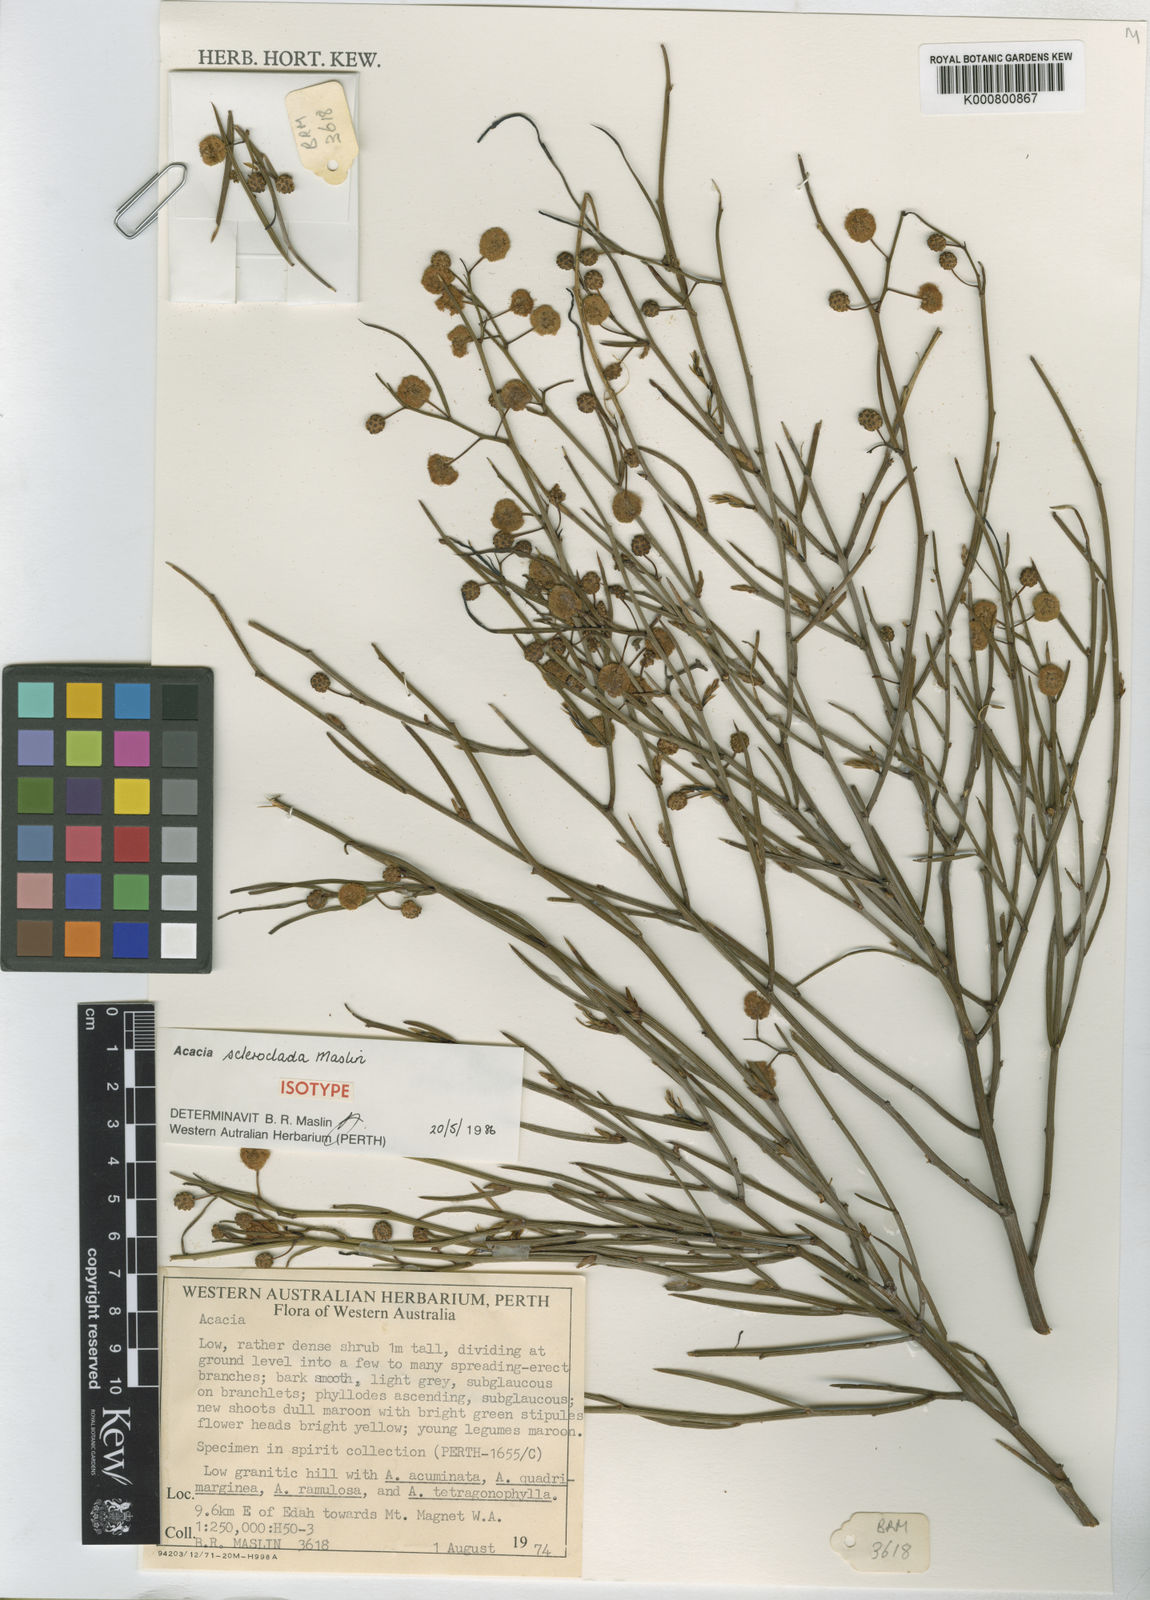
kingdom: Plantae
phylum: Tracheophyta
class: Magnoliopsida
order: Fabales
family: Fabaceae
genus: Acacia
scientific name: Acacia scleroclada
